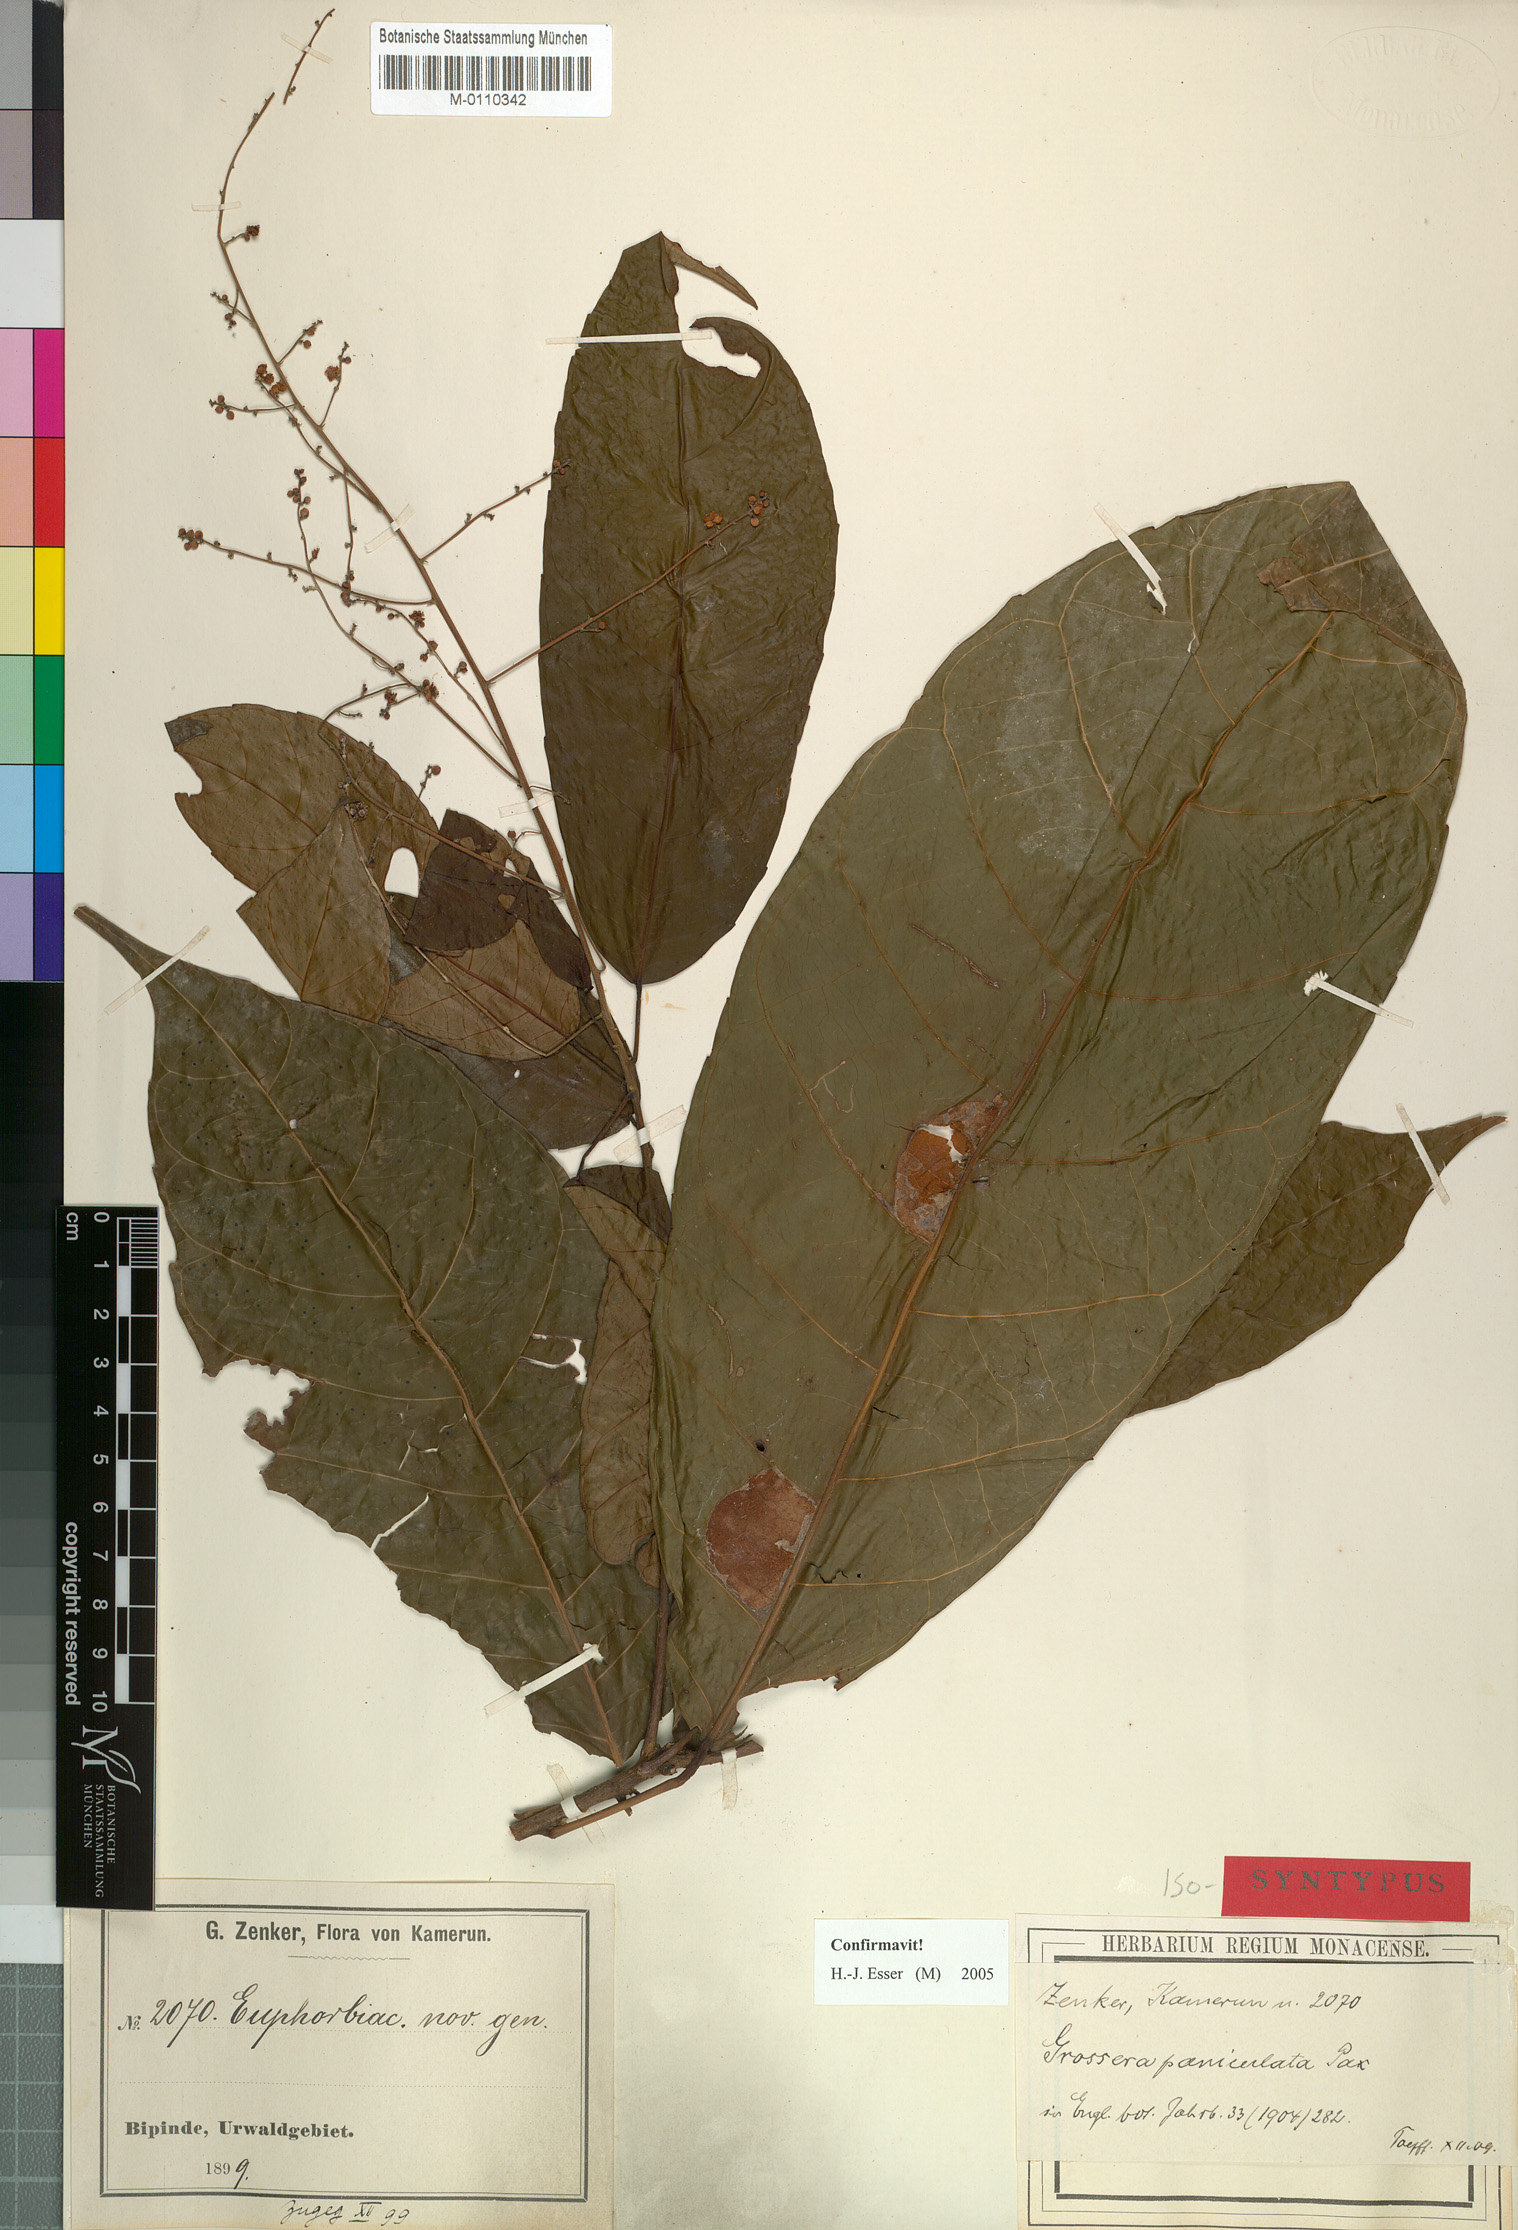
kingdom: Plantae
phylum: Tracheophyta
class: Magnoliopsida
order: Malpighiales
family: Euphorbiaceae
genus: Grossera
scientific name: Grossera paniculata
